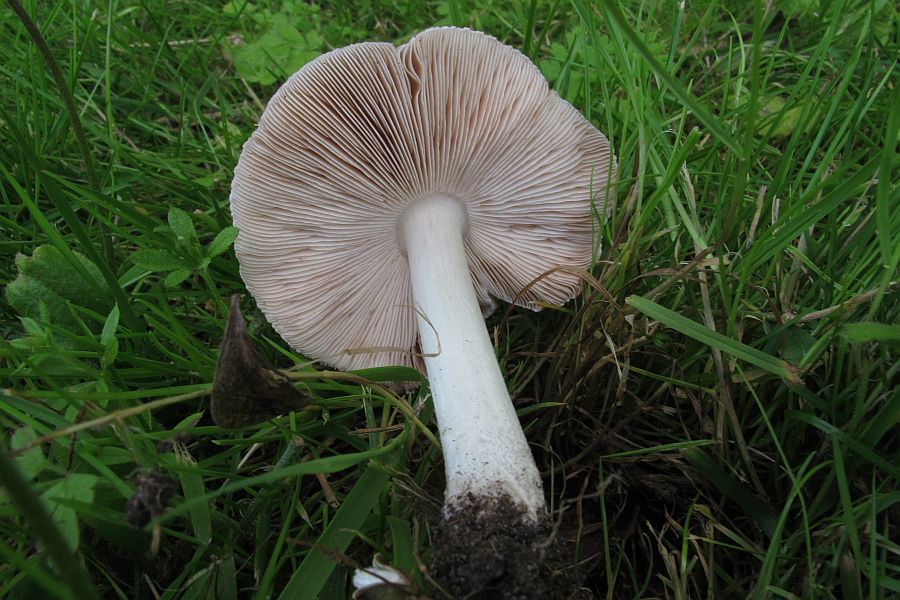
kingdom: Fungi
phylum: Basidiomycota
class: Agaricomycetes
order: Agaricales
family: Pluteaceae
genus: Pluteus
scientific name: Pluteus
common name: gråfibret skærmhat
